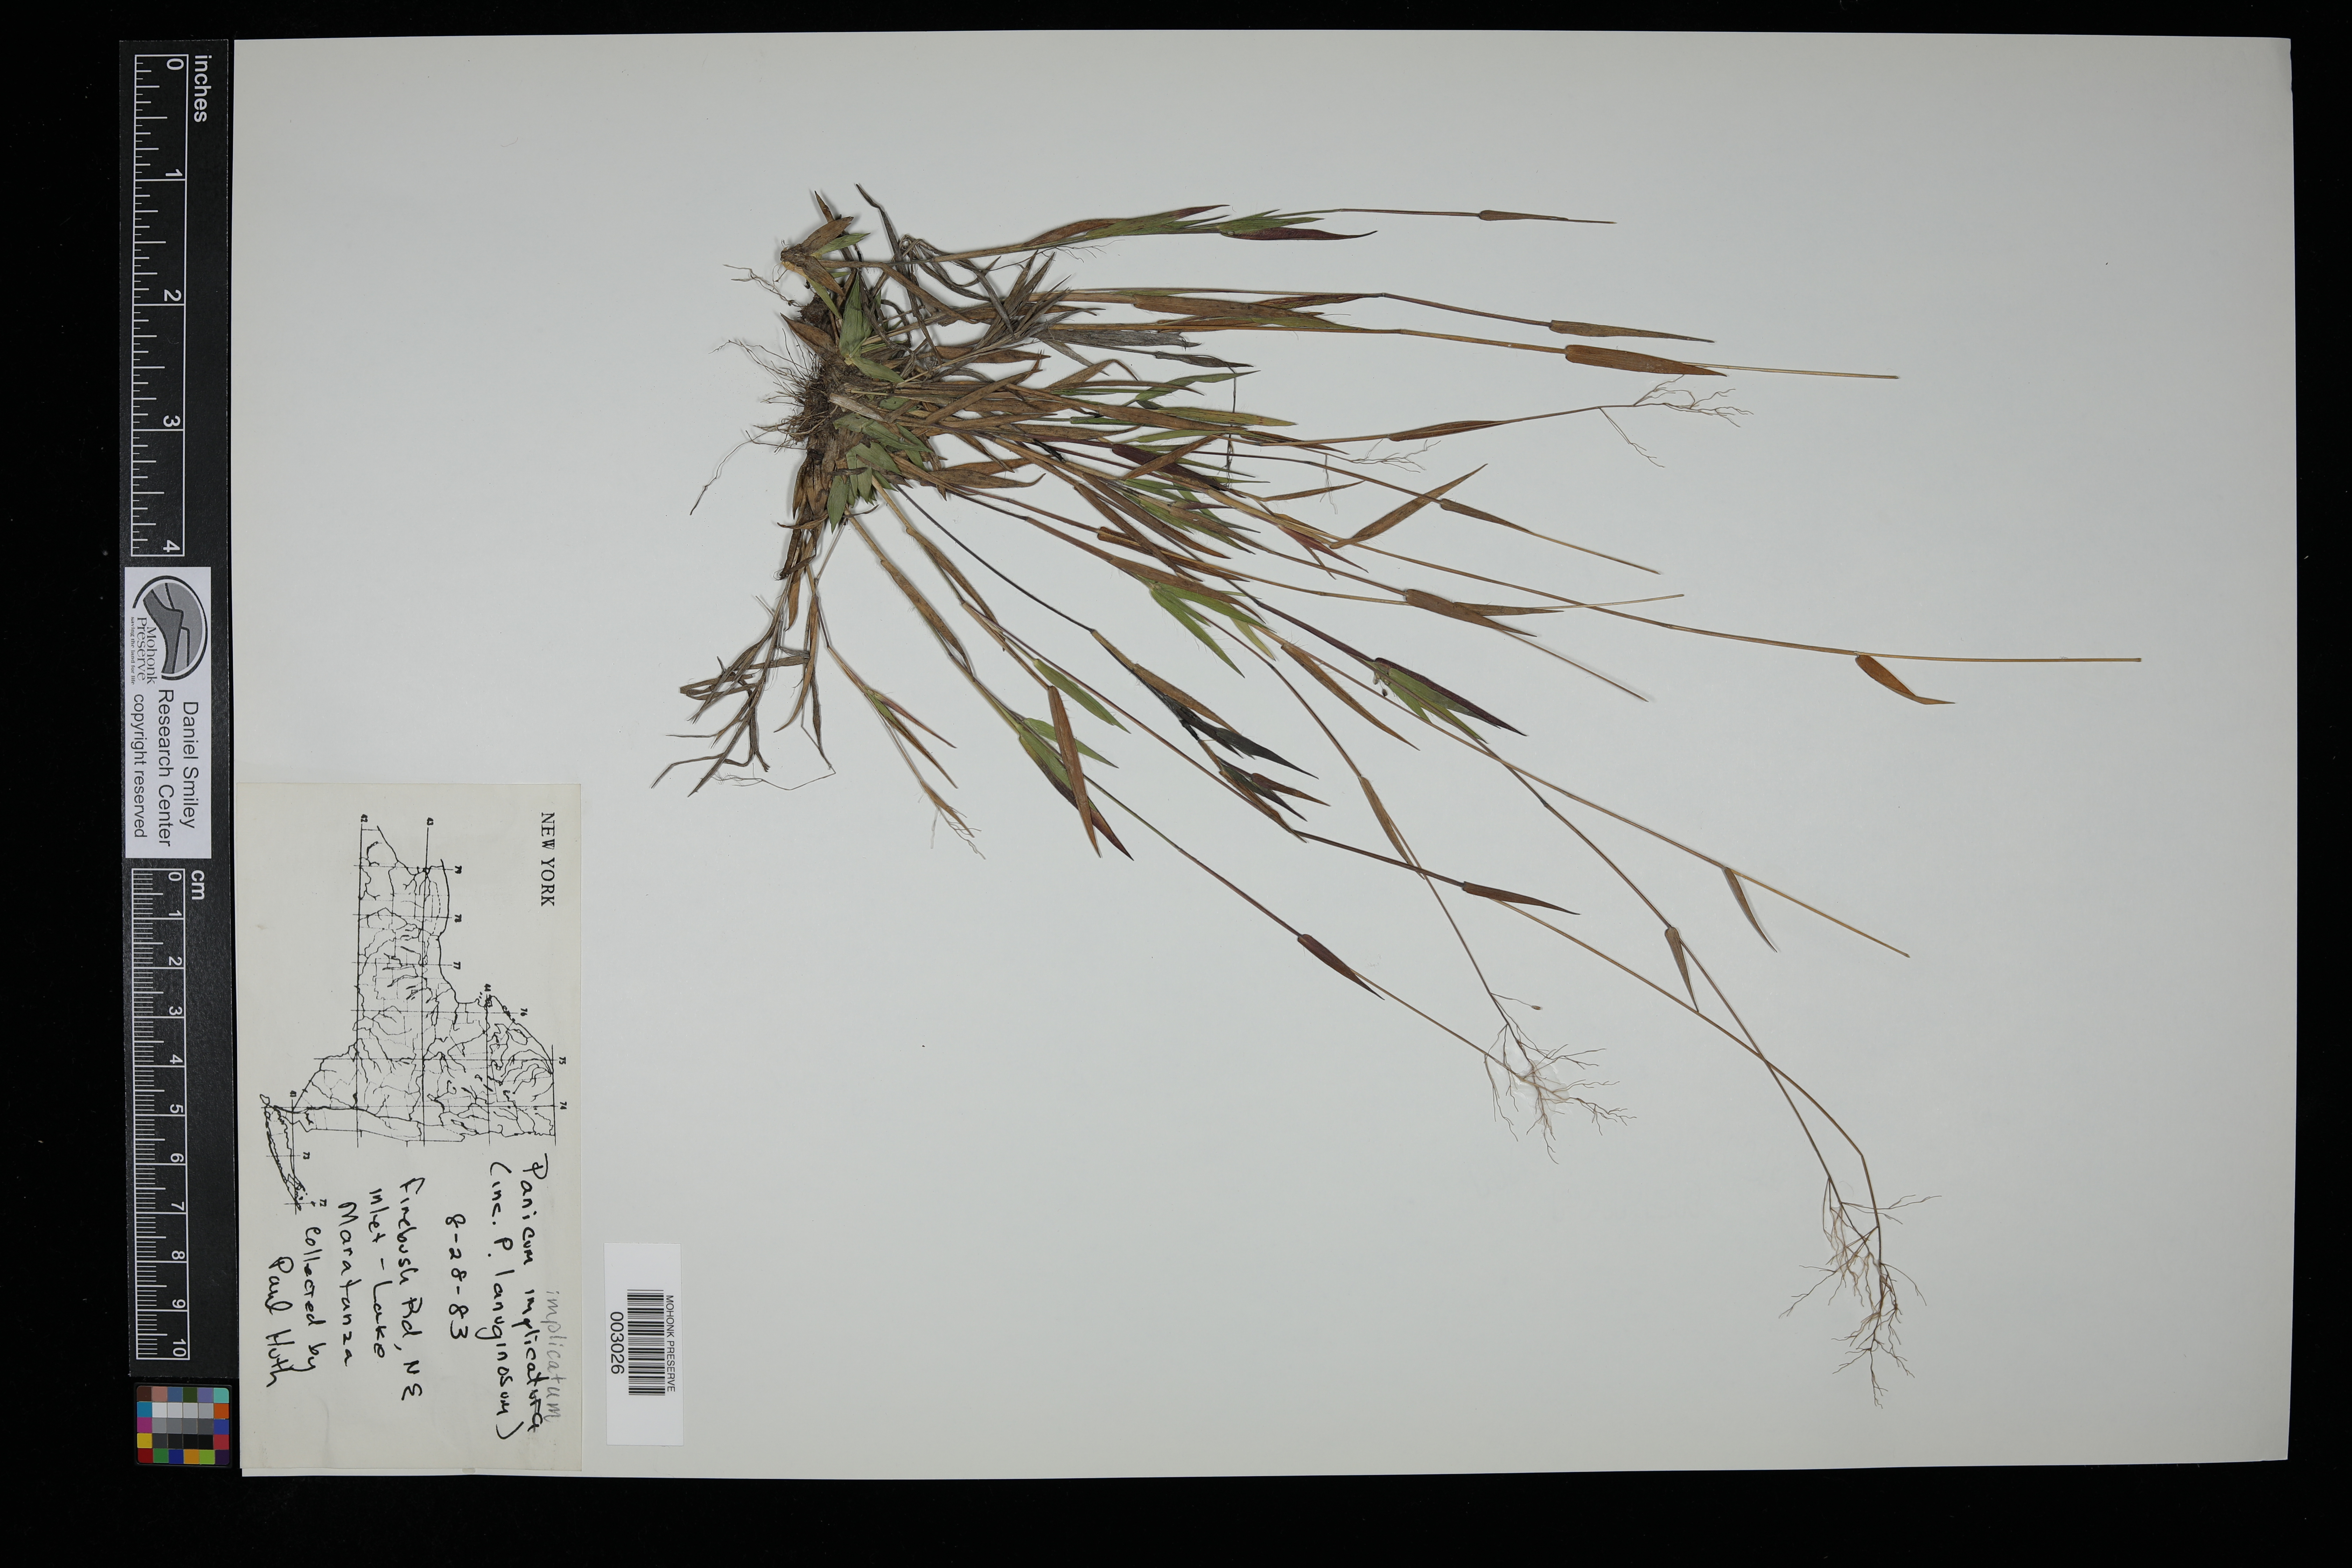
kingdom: Plantae
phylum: Tracheophyta
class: Liliopsida
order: Poales
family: Poaceae
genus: Dichanthelium
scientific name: Dichanthelium acuminatum
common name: Hairy panic grass
